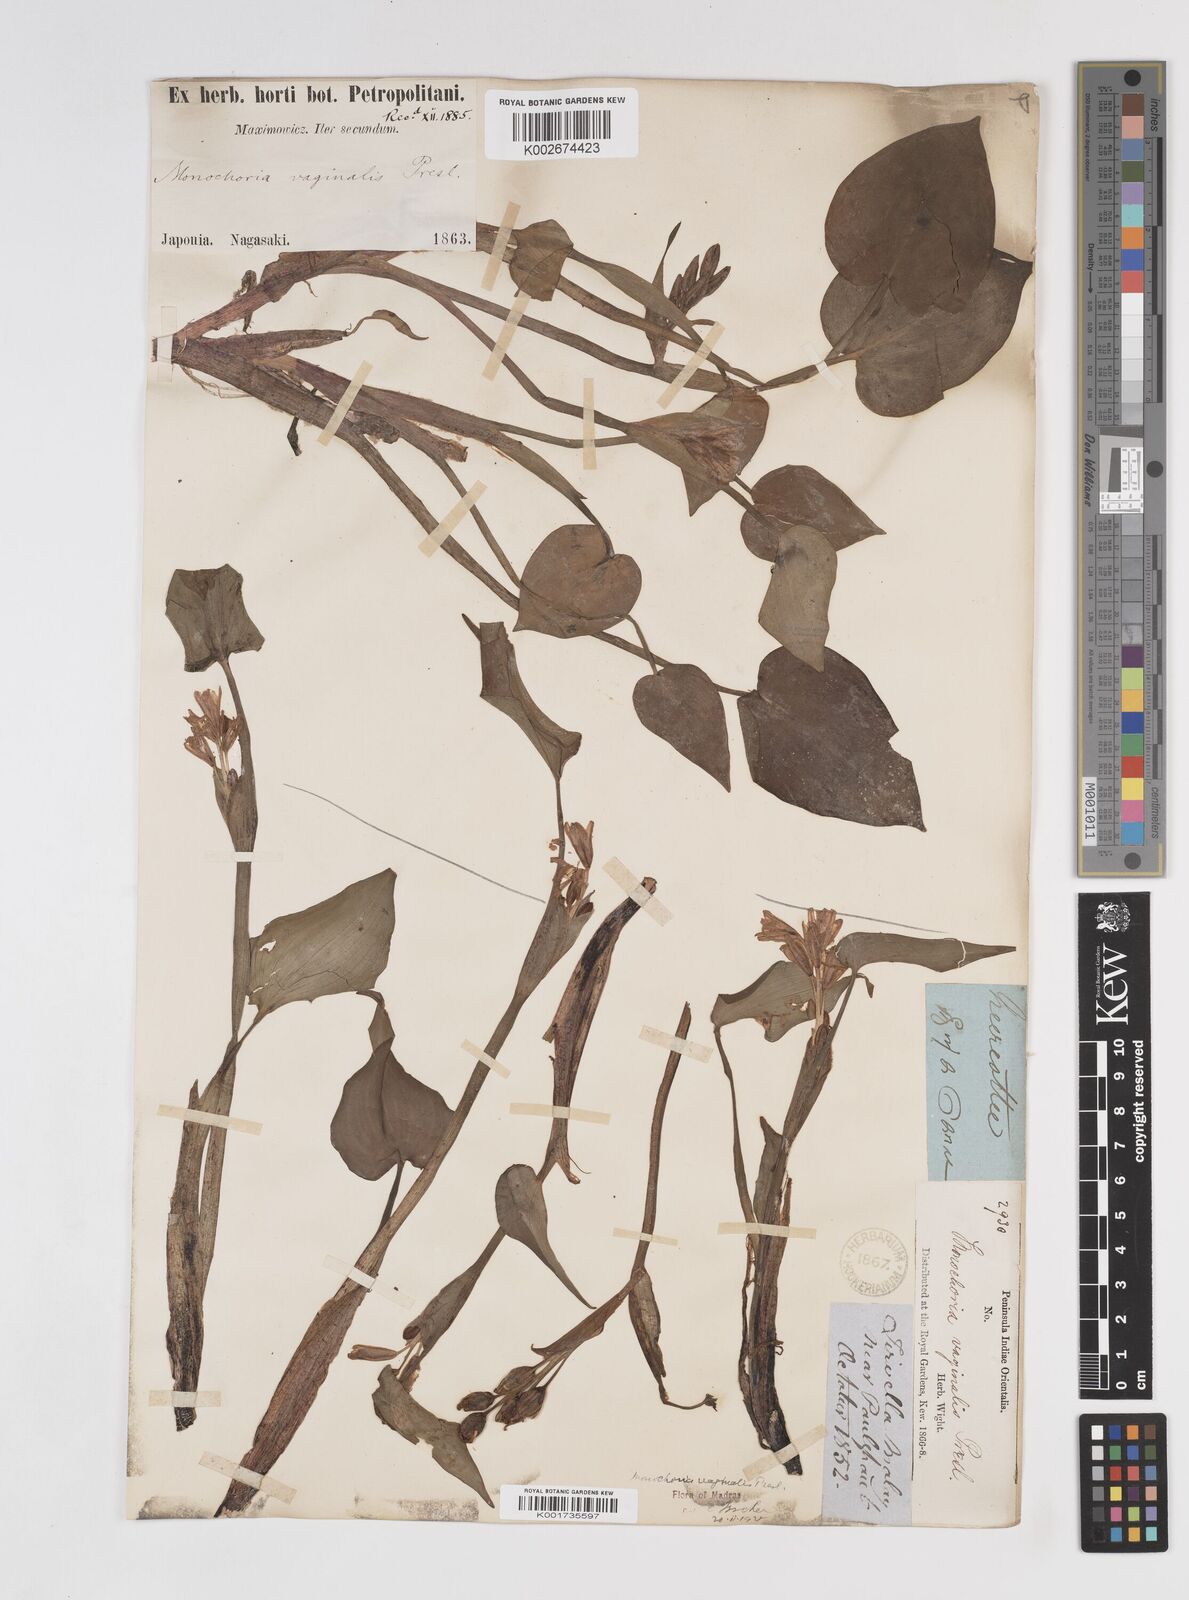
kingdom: Plantae
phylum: Tracheophyta
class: Liliopsida
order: Commelinales
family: Pontederiaceae
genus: Pontederia
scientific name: Pontederia vaginalis
